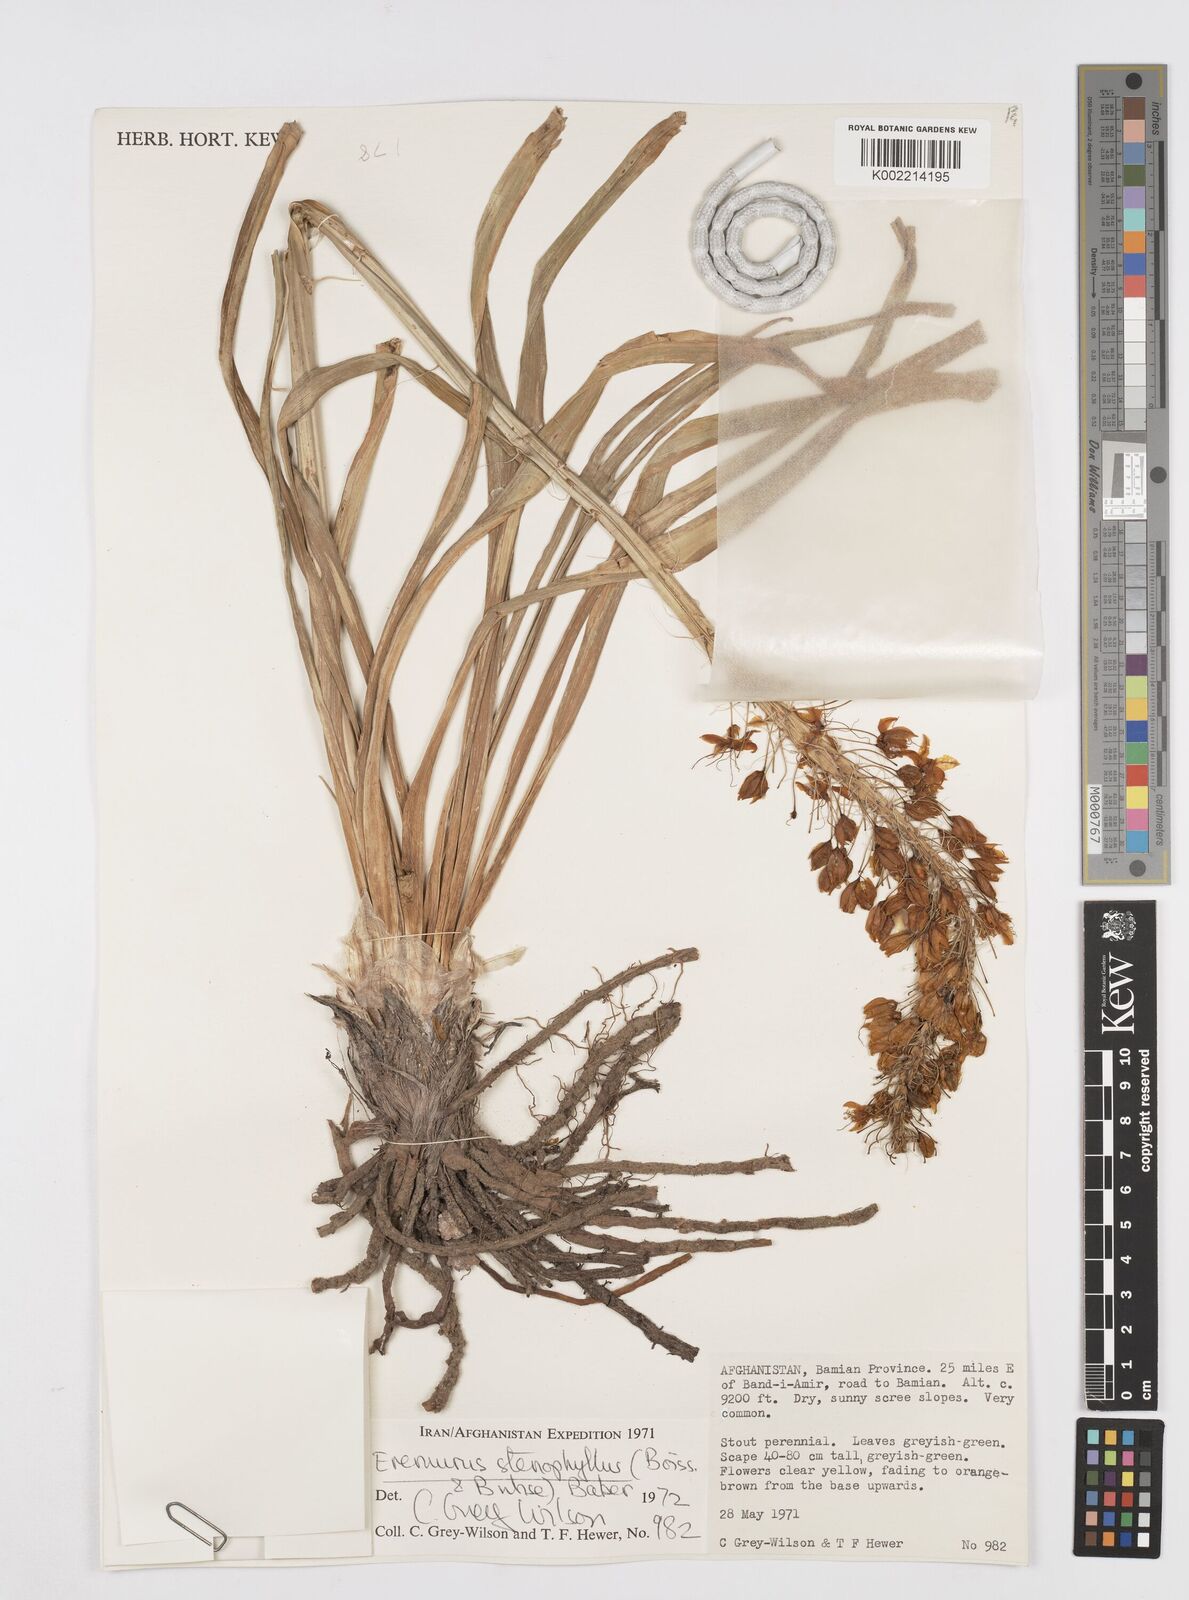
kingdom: Plantae
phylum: Tracheophyta
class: Liliopsida
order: Asparagales
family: Asphodelaceae
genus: Eremurus
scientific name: Eremurus stenophyllus
